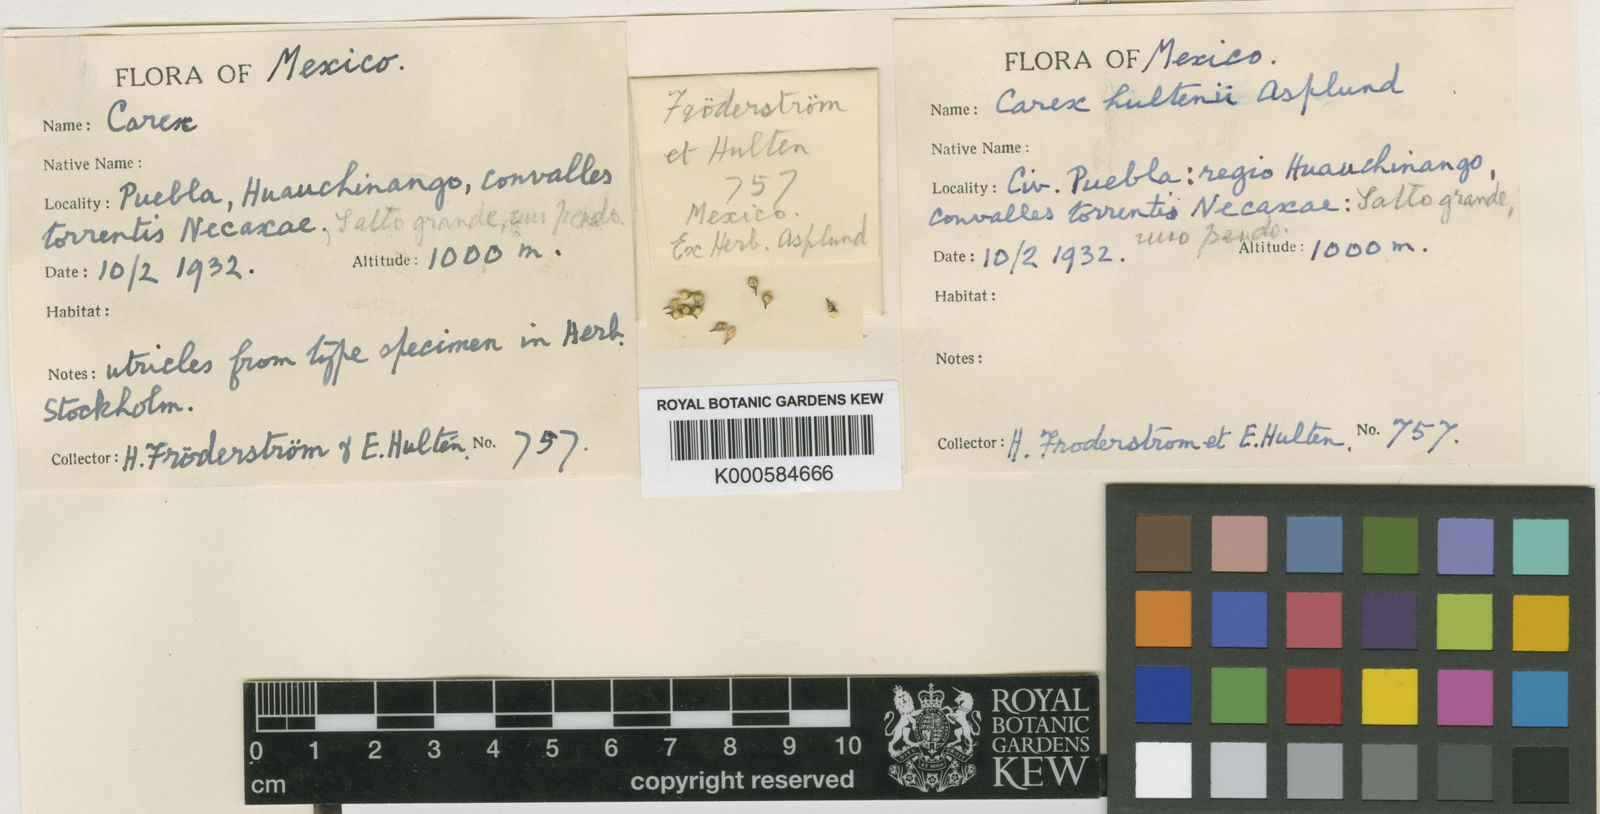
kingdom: Plantae
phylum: Tracheophyta
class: Liliopsida
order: Poales
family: Cyperaceae
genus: Carex
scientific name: Carex hultenii
